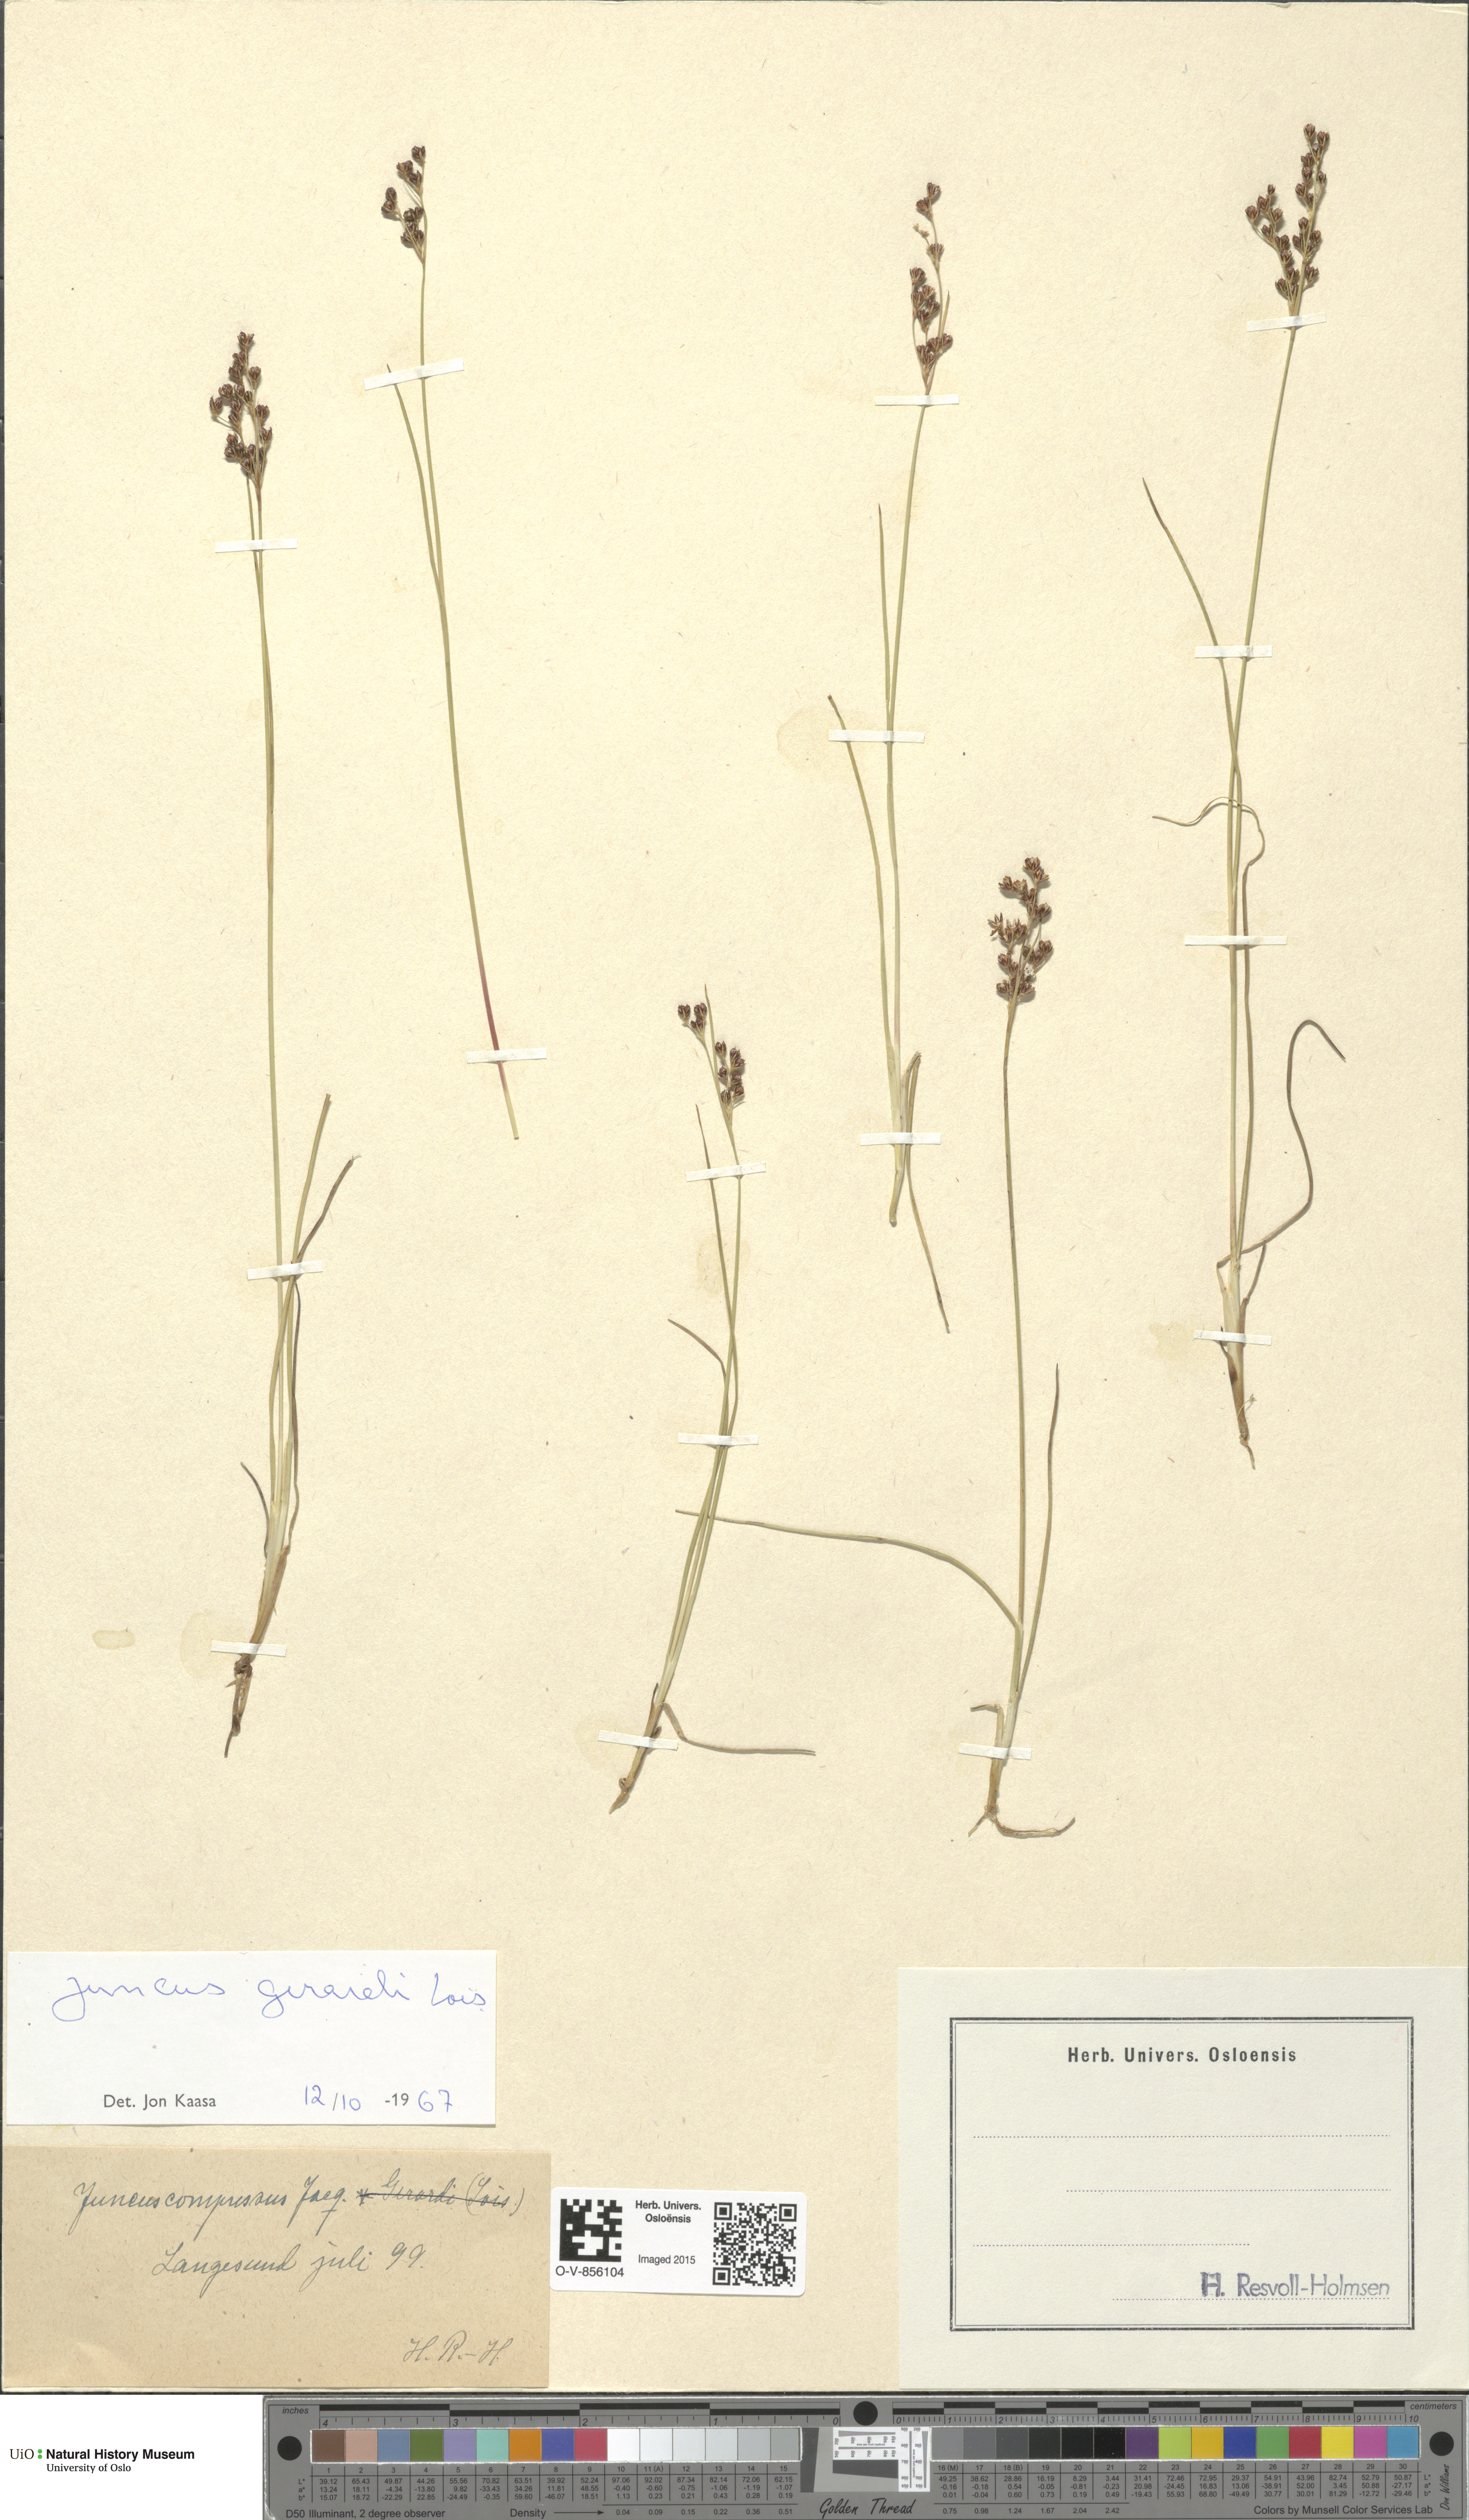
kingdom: Plantae
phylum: Tracheophyta
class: Liliopsida
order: Poales
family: Juncaceae
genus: Juncus
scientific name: Juncus gerardi
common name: Saltmarsh rush
